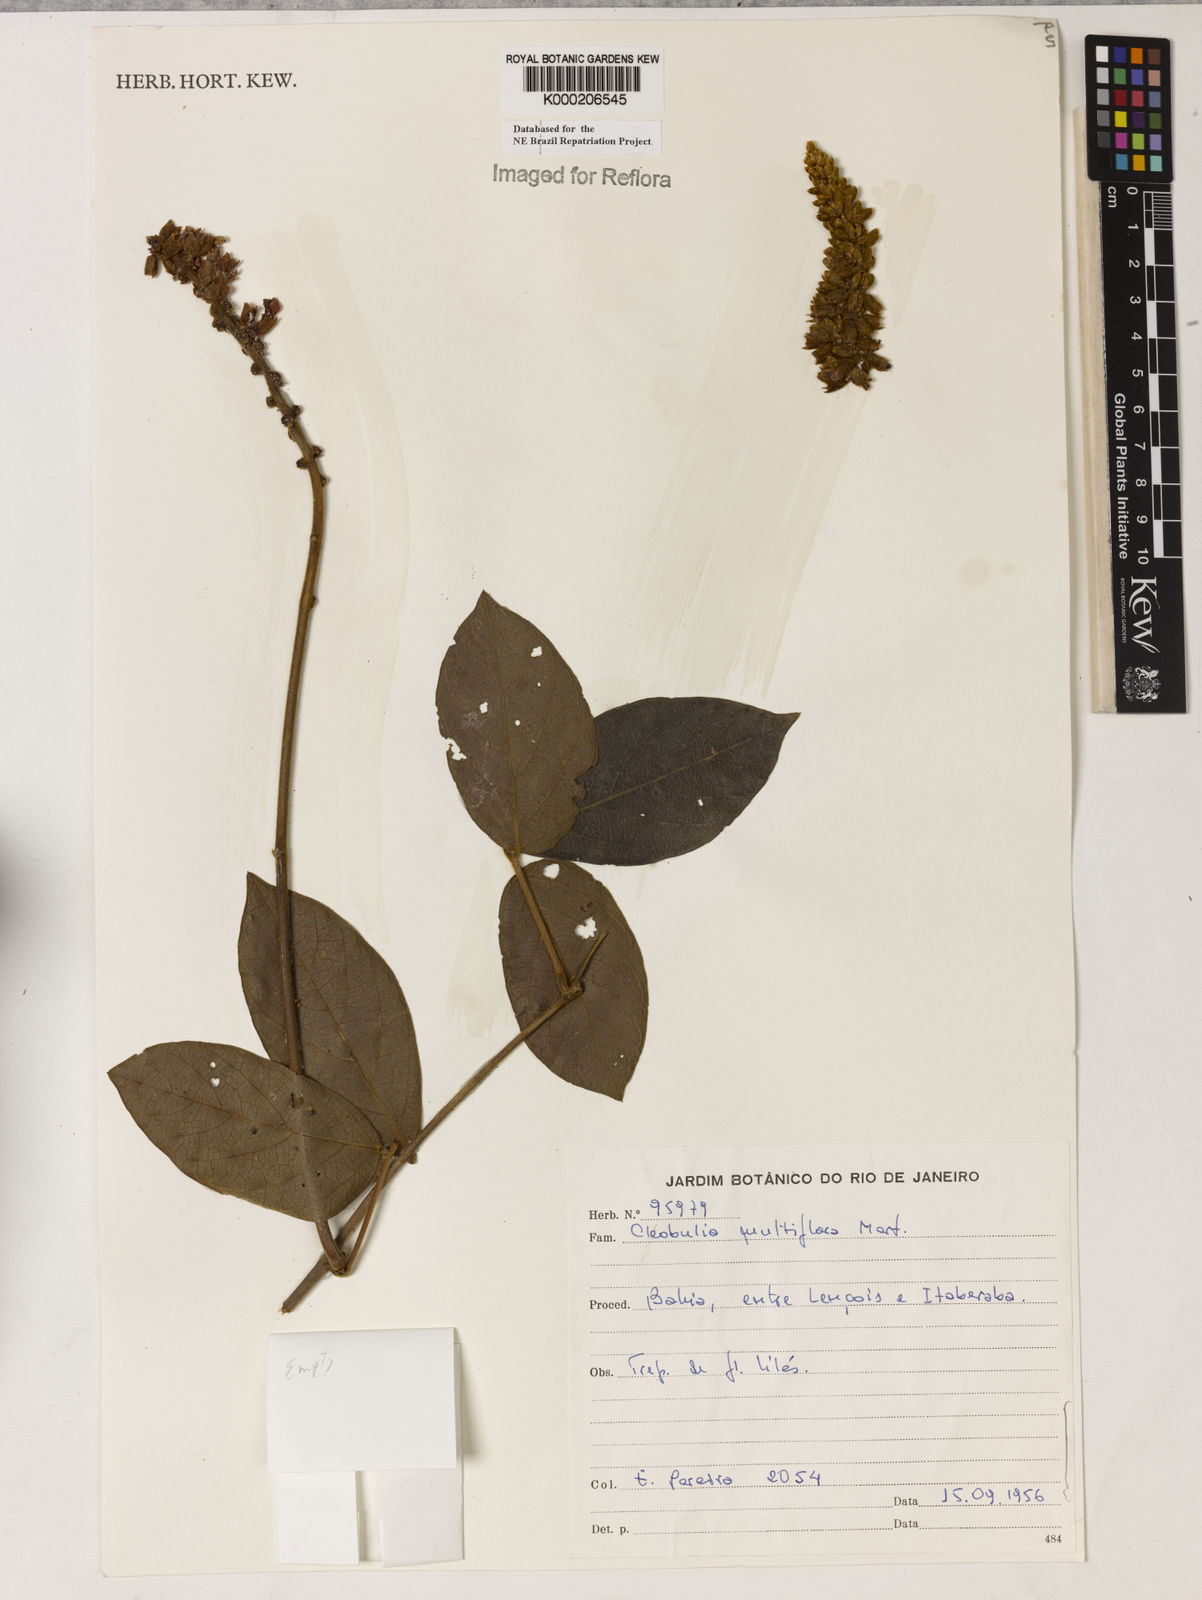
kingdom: Plantae
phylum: Tracheophyta
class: Magnoliopsida
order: Fabales
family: Fabaceae
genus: Cleobulia
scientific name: Cleobulia coccinea
